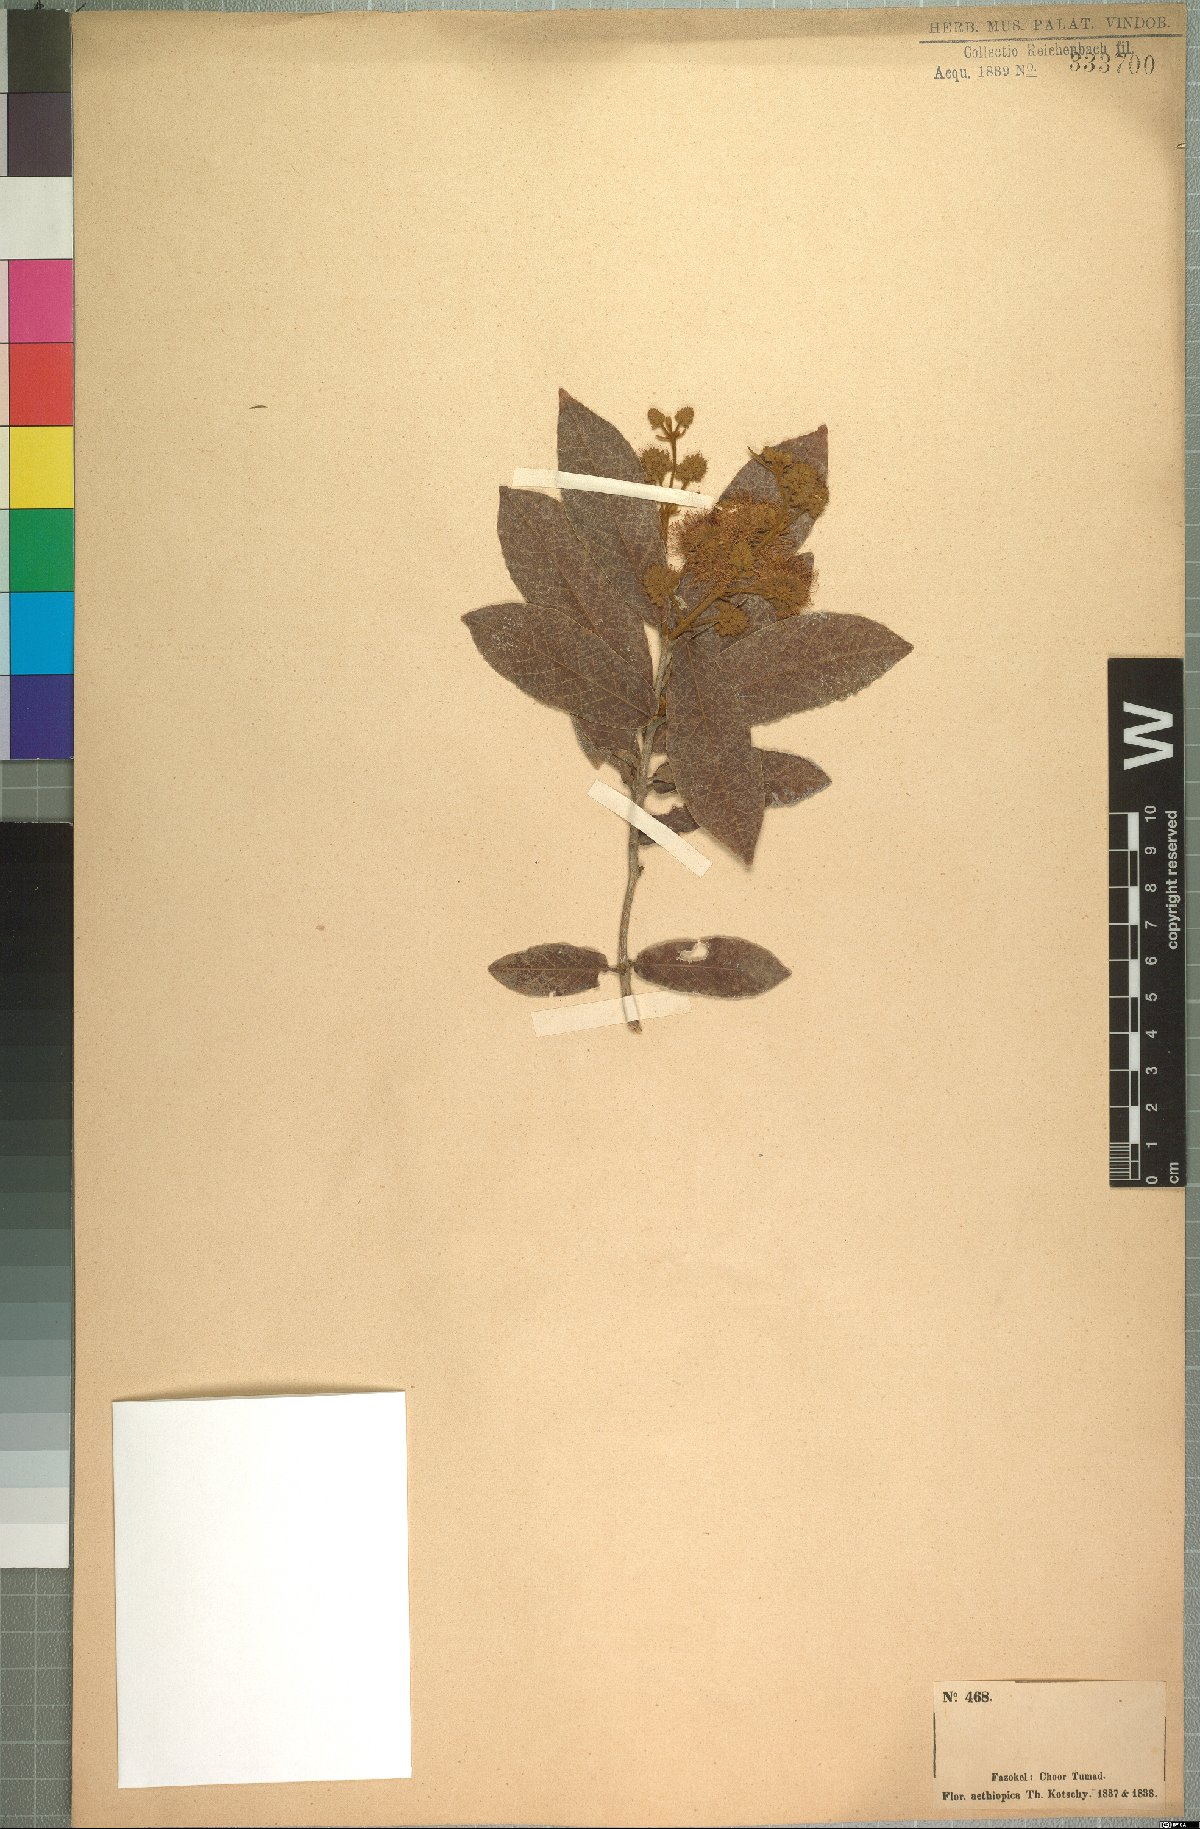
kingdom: Plantae
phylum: Tracheophyta
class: Magnoliopsida
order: Myrtales
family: Combretaceae
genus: Combretum
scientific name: Combretum capituliflorum
